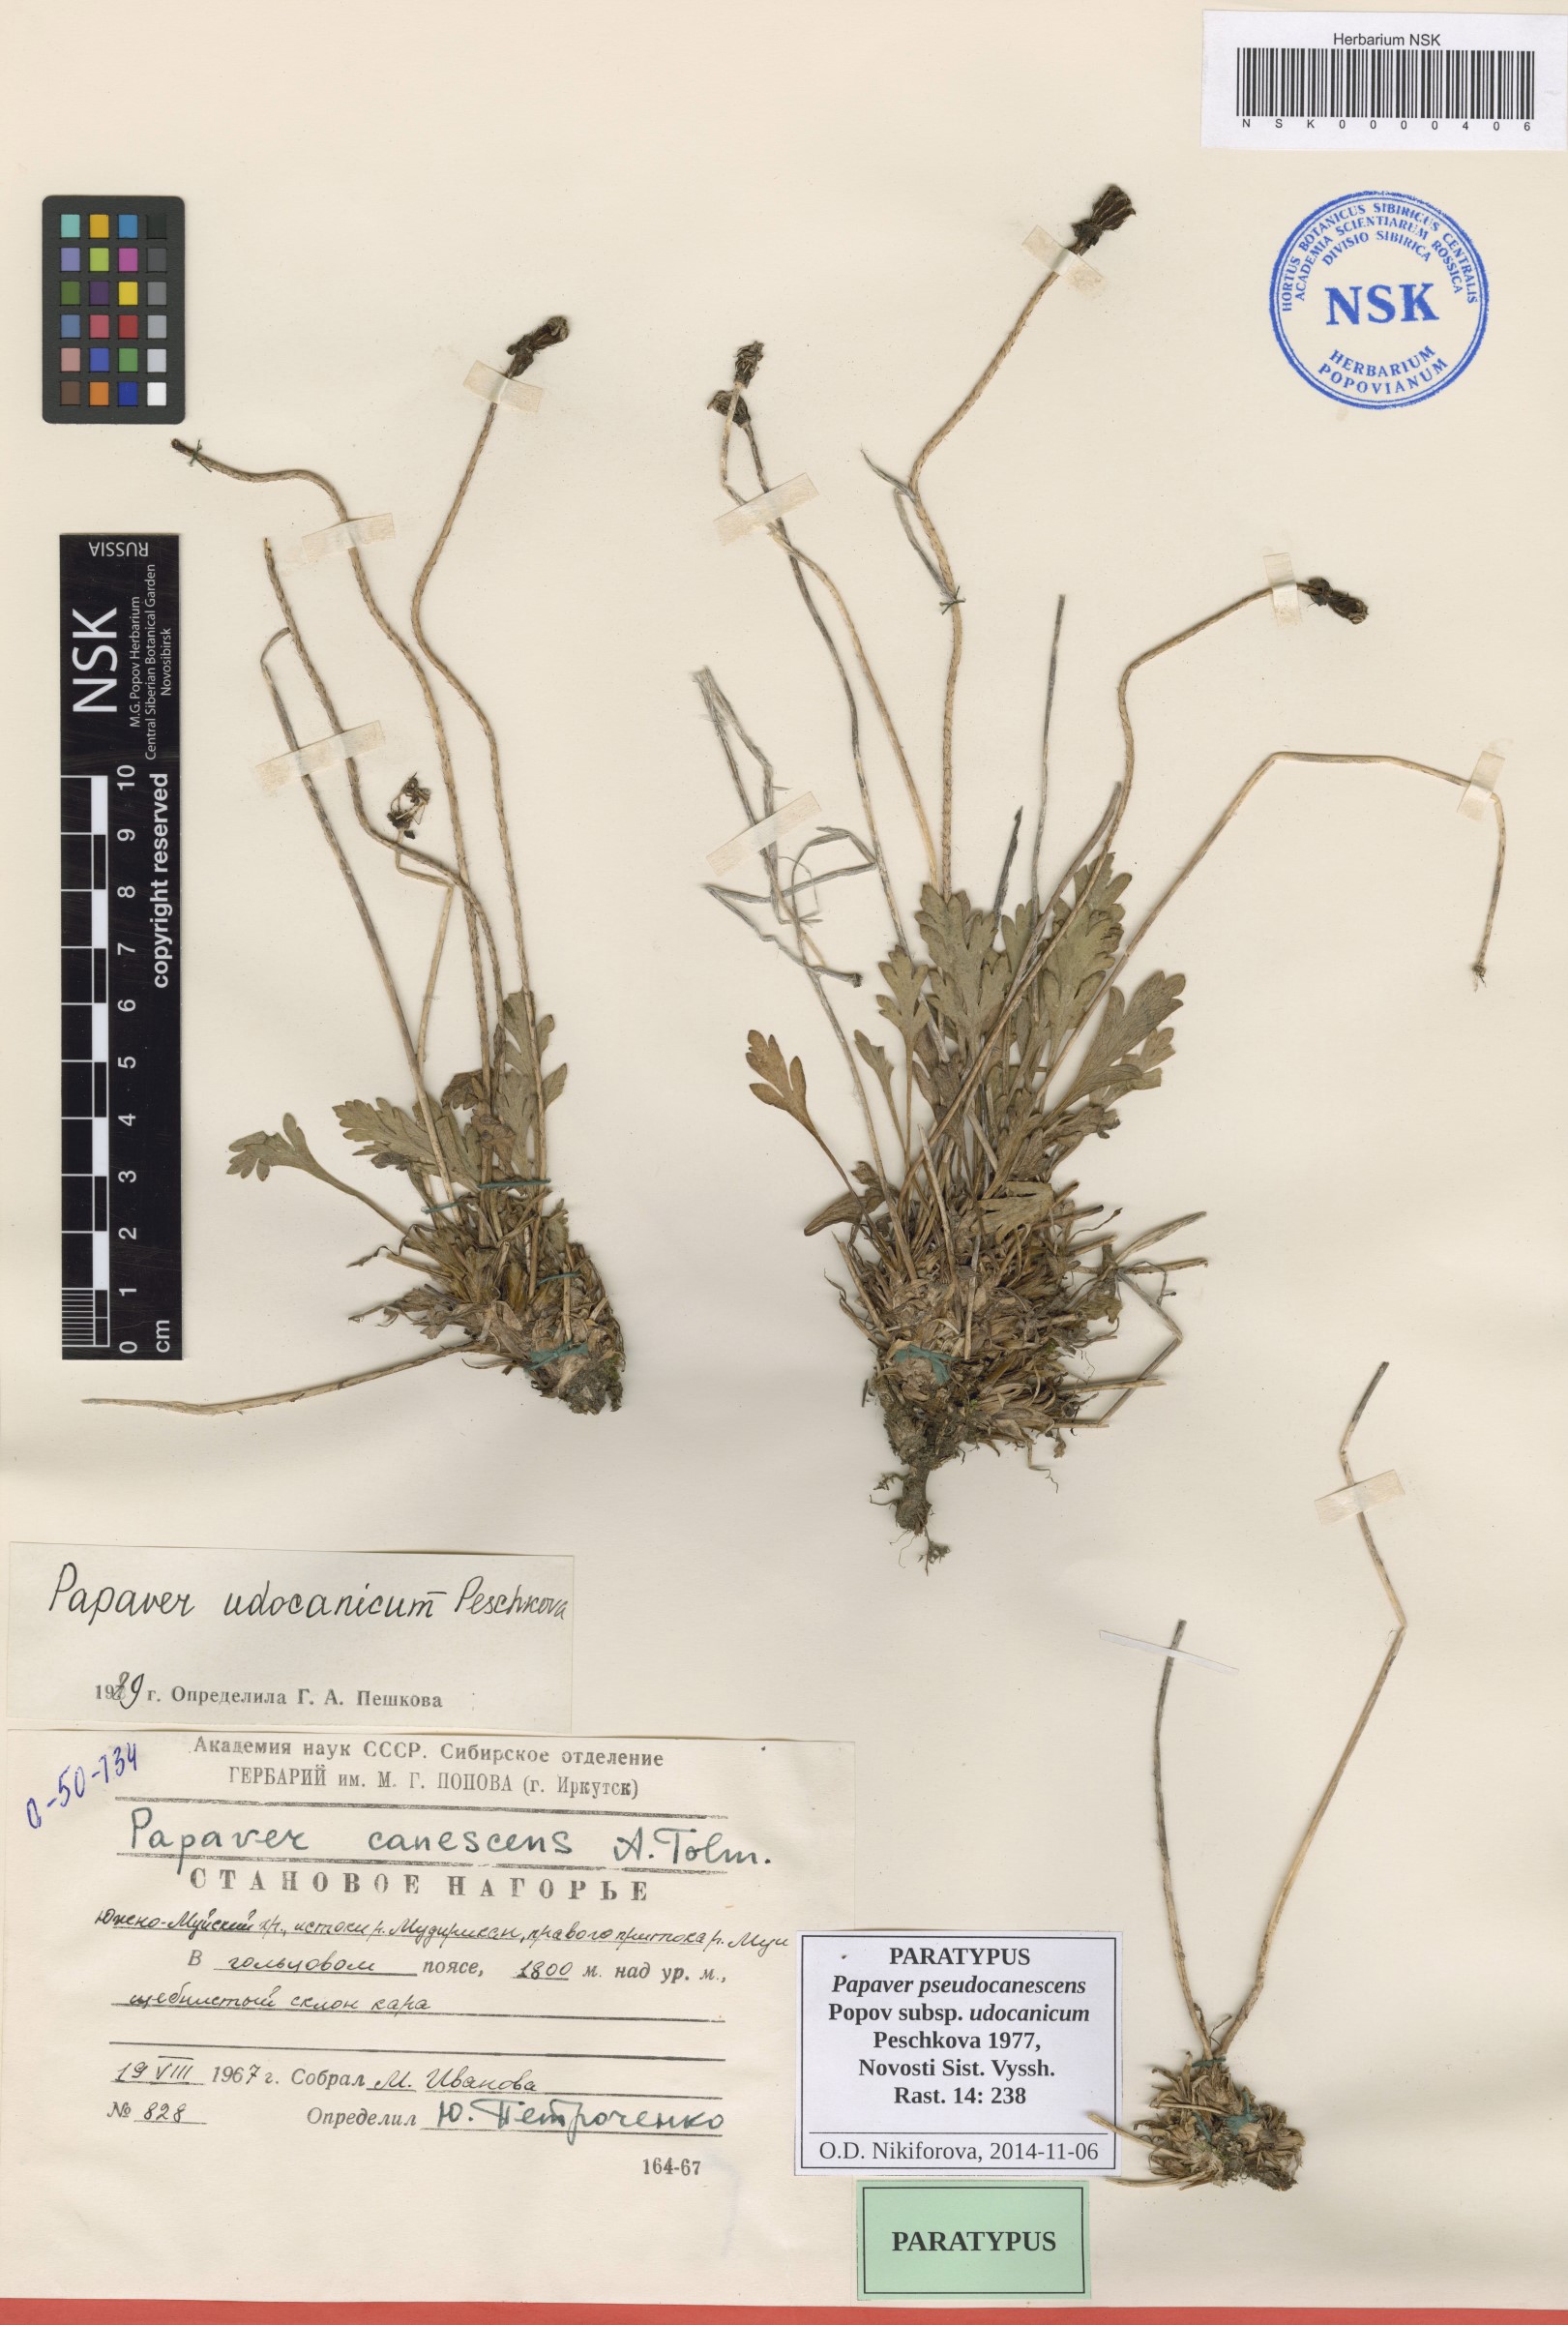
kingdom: Plantae
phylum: Tracheophyta
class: Magnoliopsida
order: Ranunculales
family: Papaveraceae
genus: Papaver
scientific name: Papaver udocanicum
